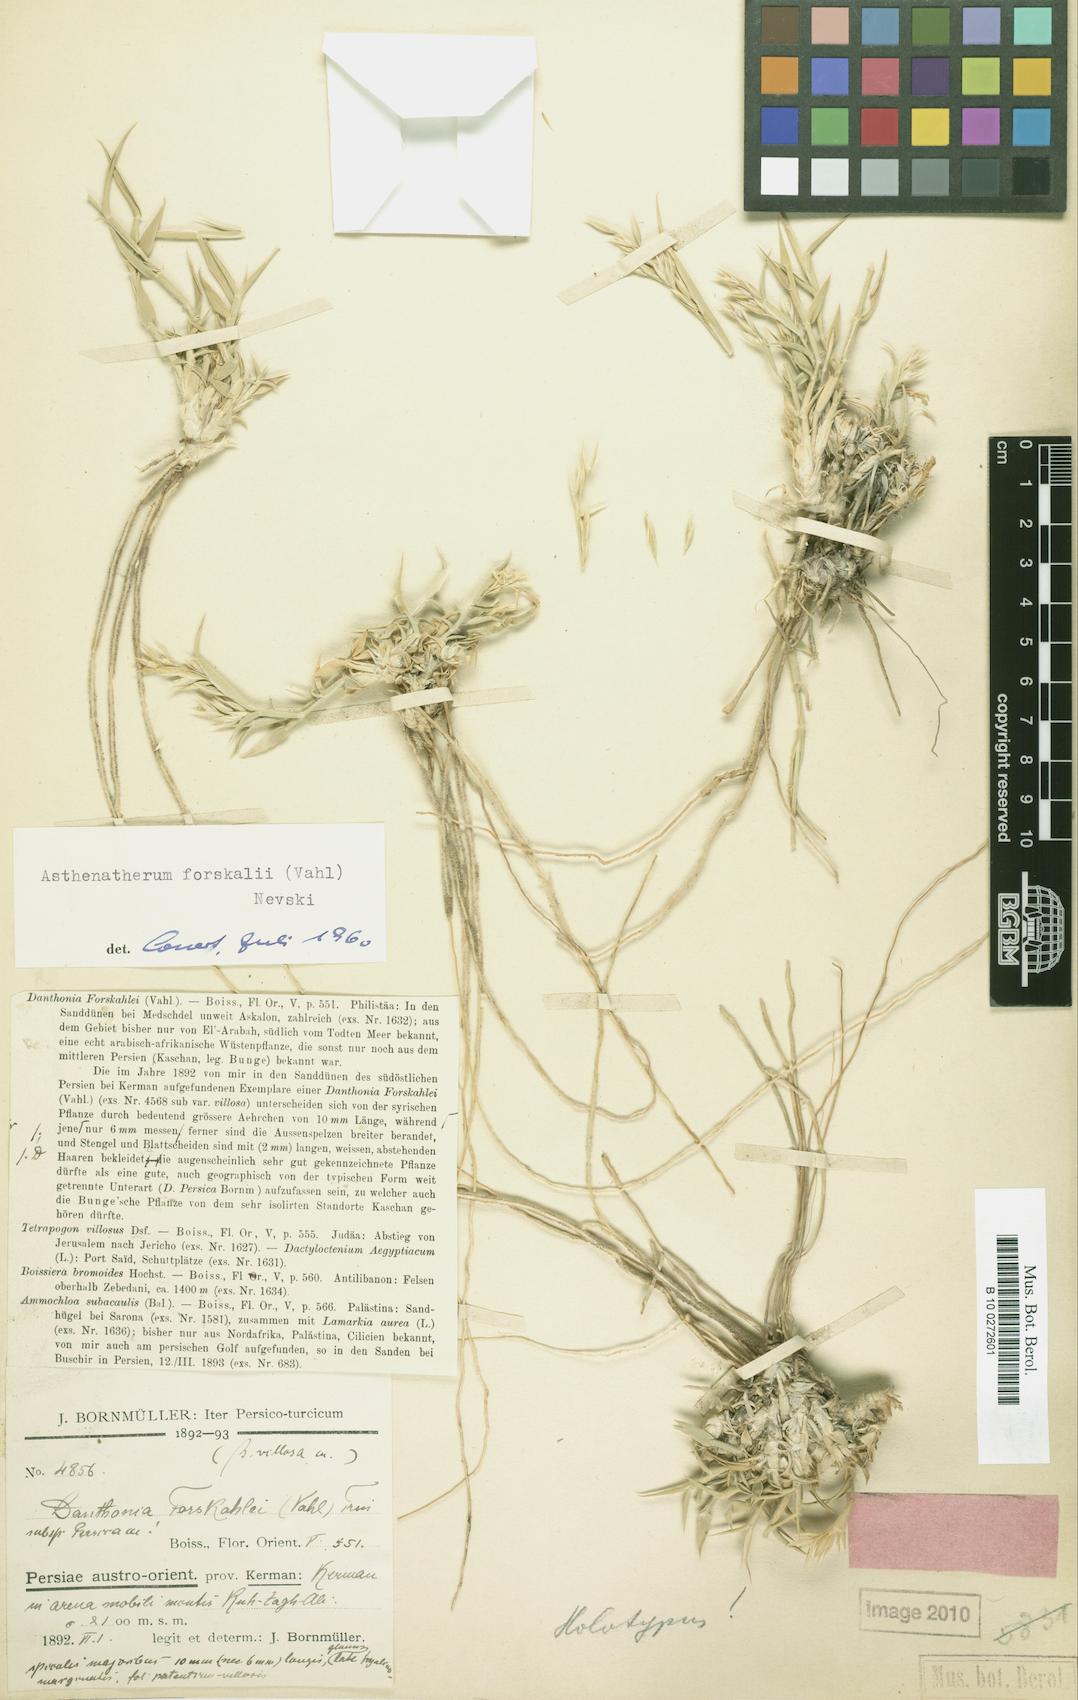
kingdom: Plantae
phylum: Tracheophyta
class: Liliopsida
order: Poales
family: Poaceae
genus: Centropodia
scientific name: Centropodia forsskalii
